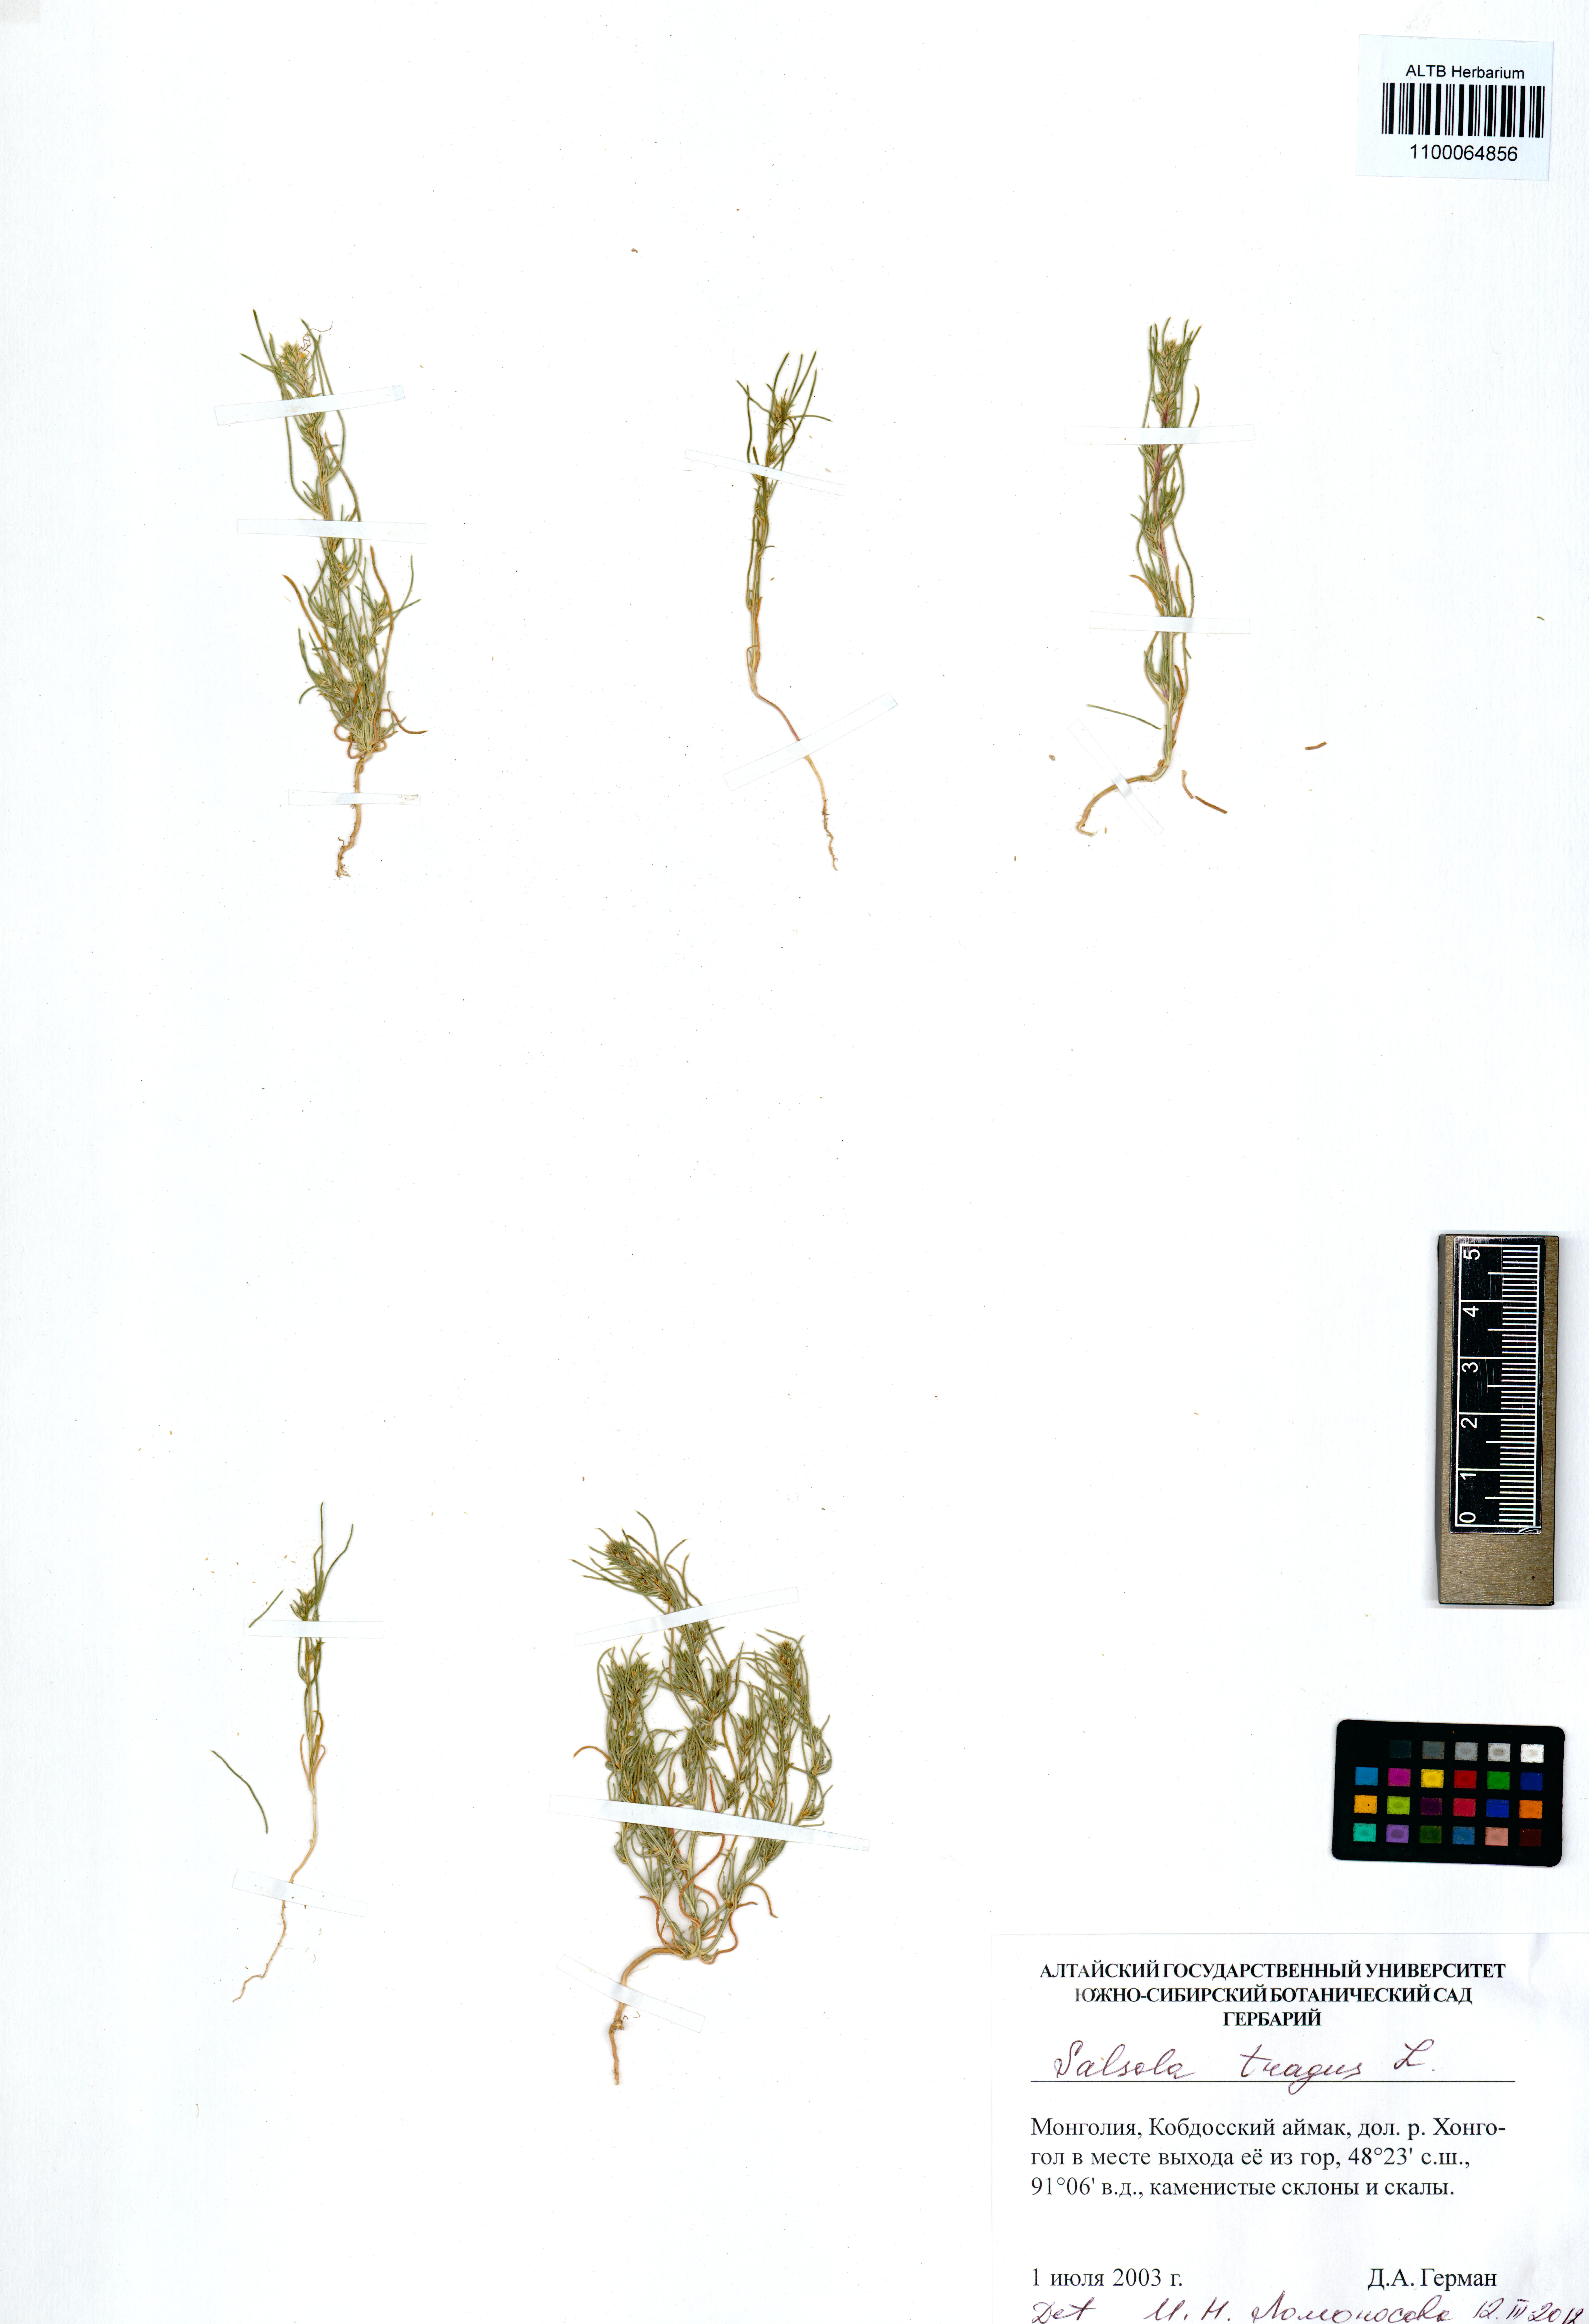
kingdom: Plantae
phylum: Tracheophyta
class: Magnoliopsida
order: Caryophyllales
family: Amaranthaceae
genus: Salsola
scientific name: Salsola tragus
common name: Prickly russian thistle
